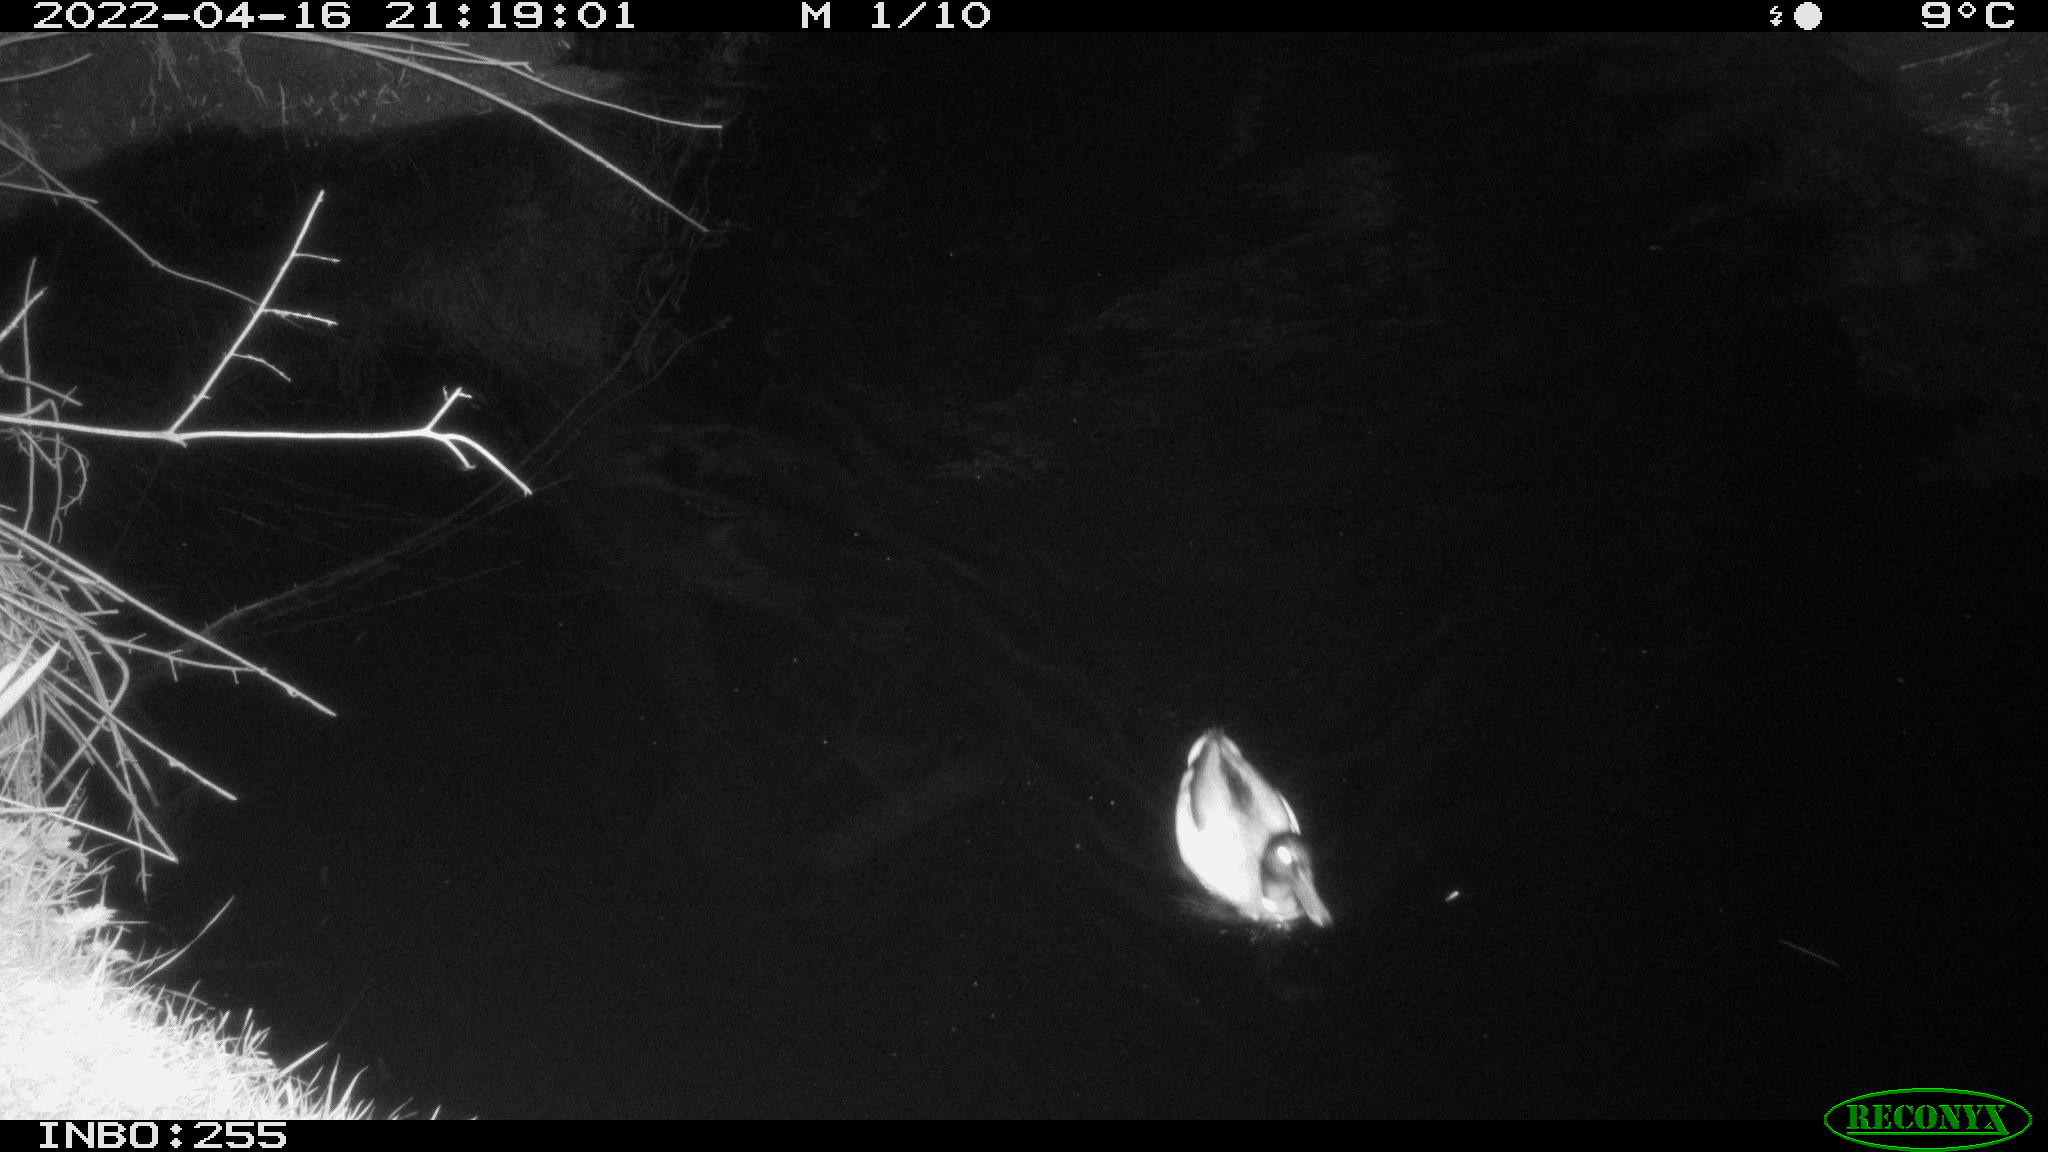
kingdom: Animalia
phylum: Chordata
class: Aves
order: Anseriformes
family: Anatidae
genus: Anas
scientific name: Anas platyrhynchos
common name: Mallard
